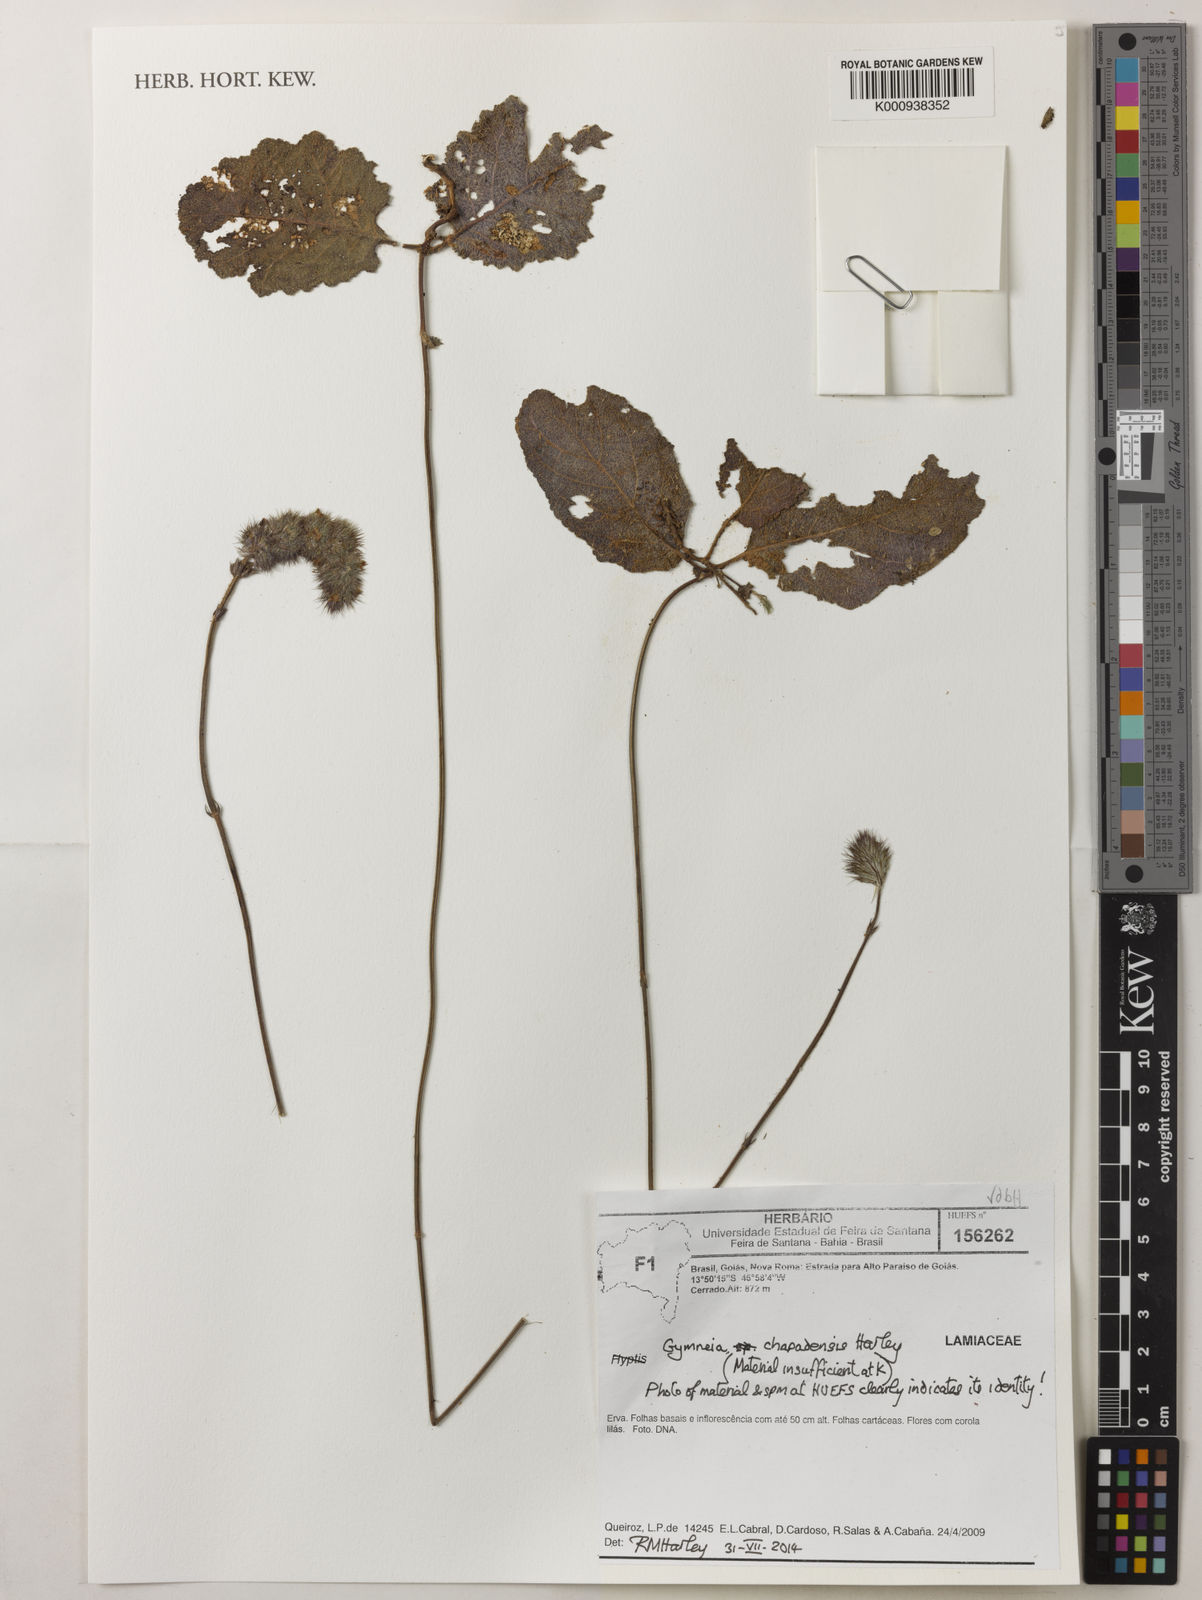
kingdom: Plantae
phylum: Tracheophyta
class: Magnoliopsida
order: Lamiales
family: Lamiaceae
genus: Gymneia
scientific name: Gymneia chapadensis
